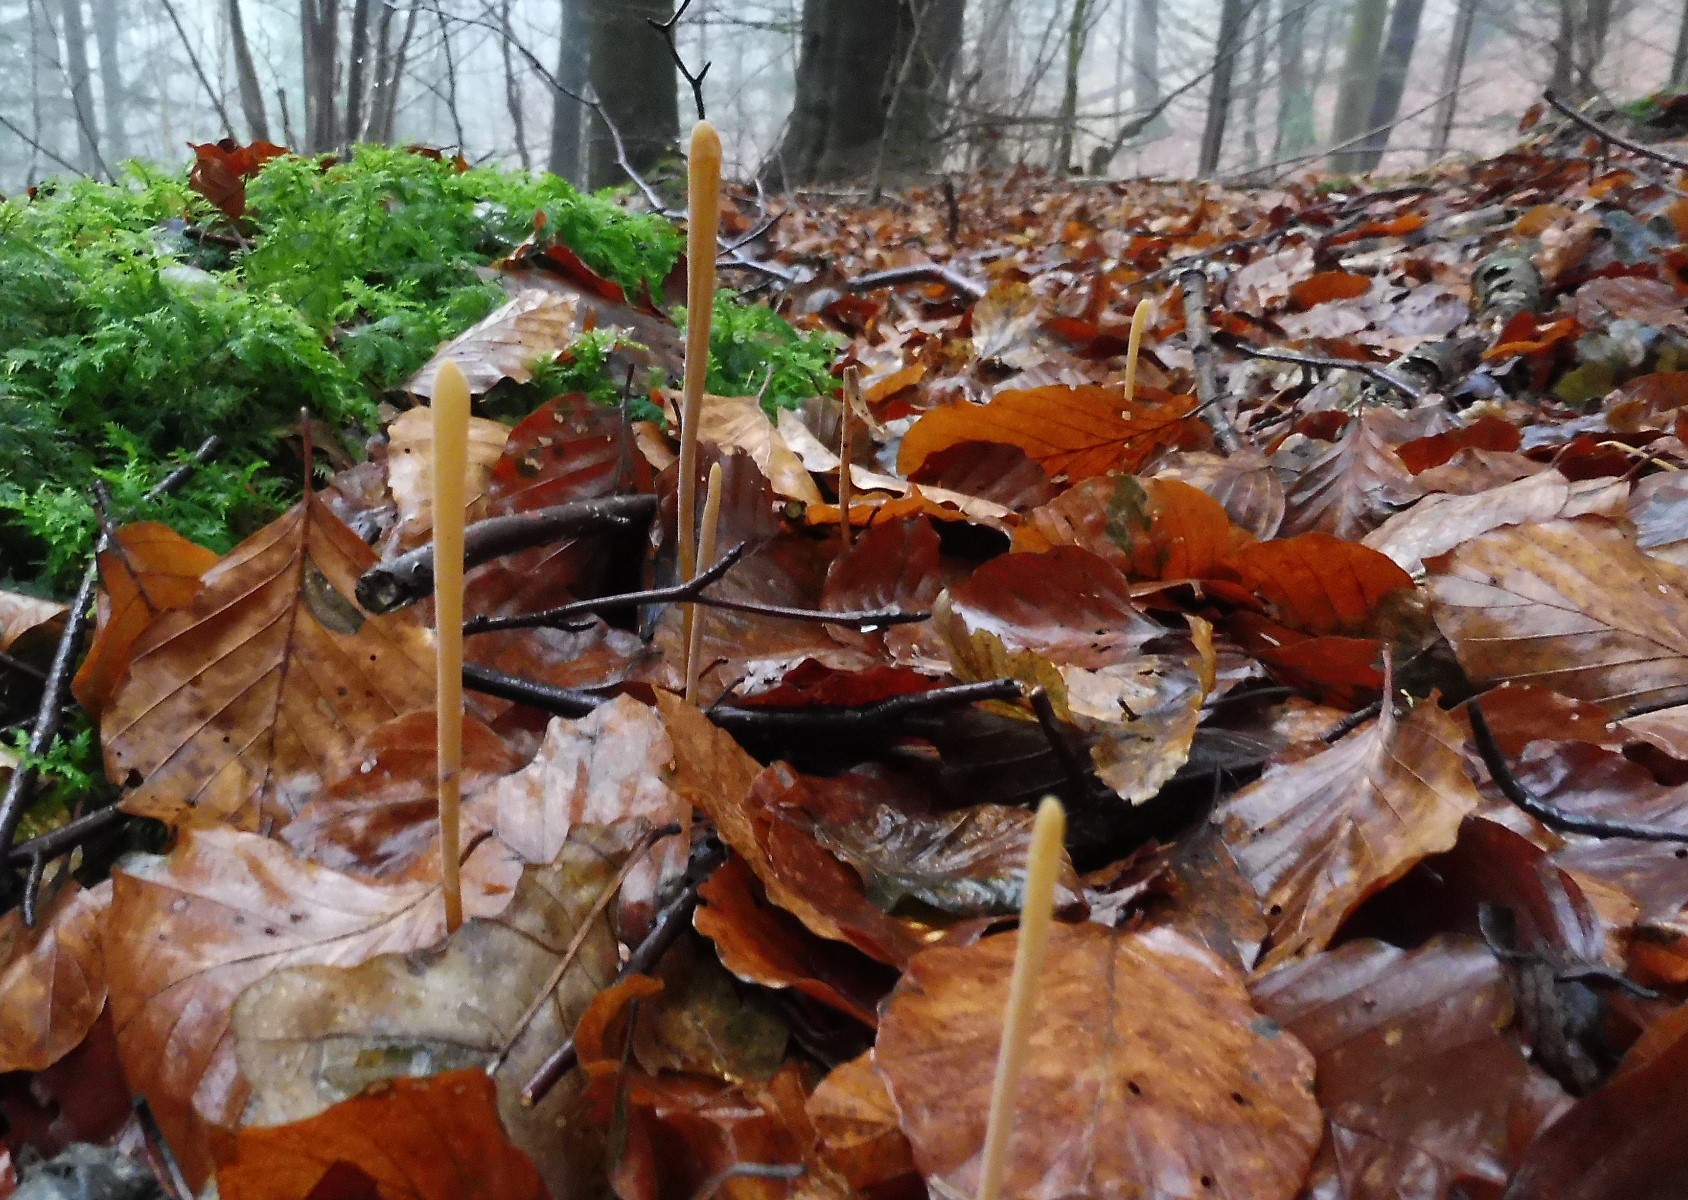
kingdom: Fungi
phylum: Basidiomycota
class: Agaricomycetes
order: Agaricales
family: Typhulaceae
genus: Typhula
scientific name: Typhula fistulosa
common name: pibet rørkølle
